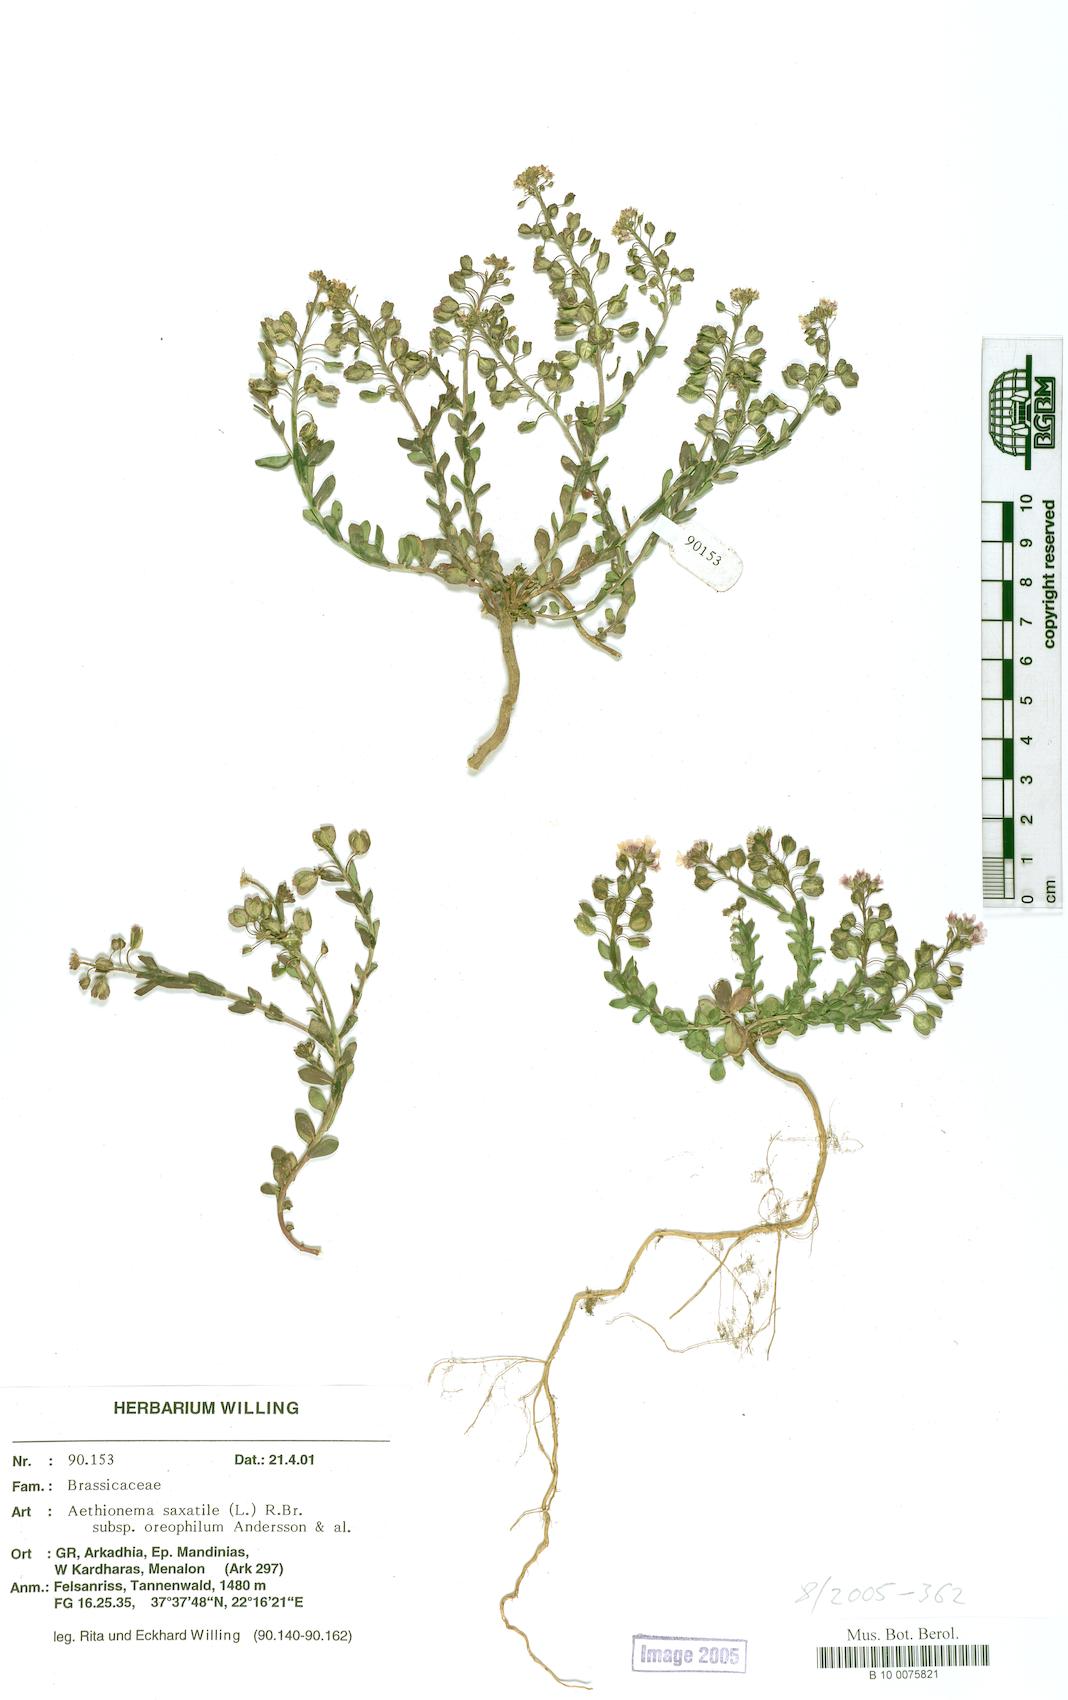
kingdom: Plantae
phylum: Tracheophyta
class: Magnoliopsida
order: Brassicales
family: Brassicaceae
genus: Aethionema
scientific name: Aethionema saxatile
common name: Burnt candytuft
